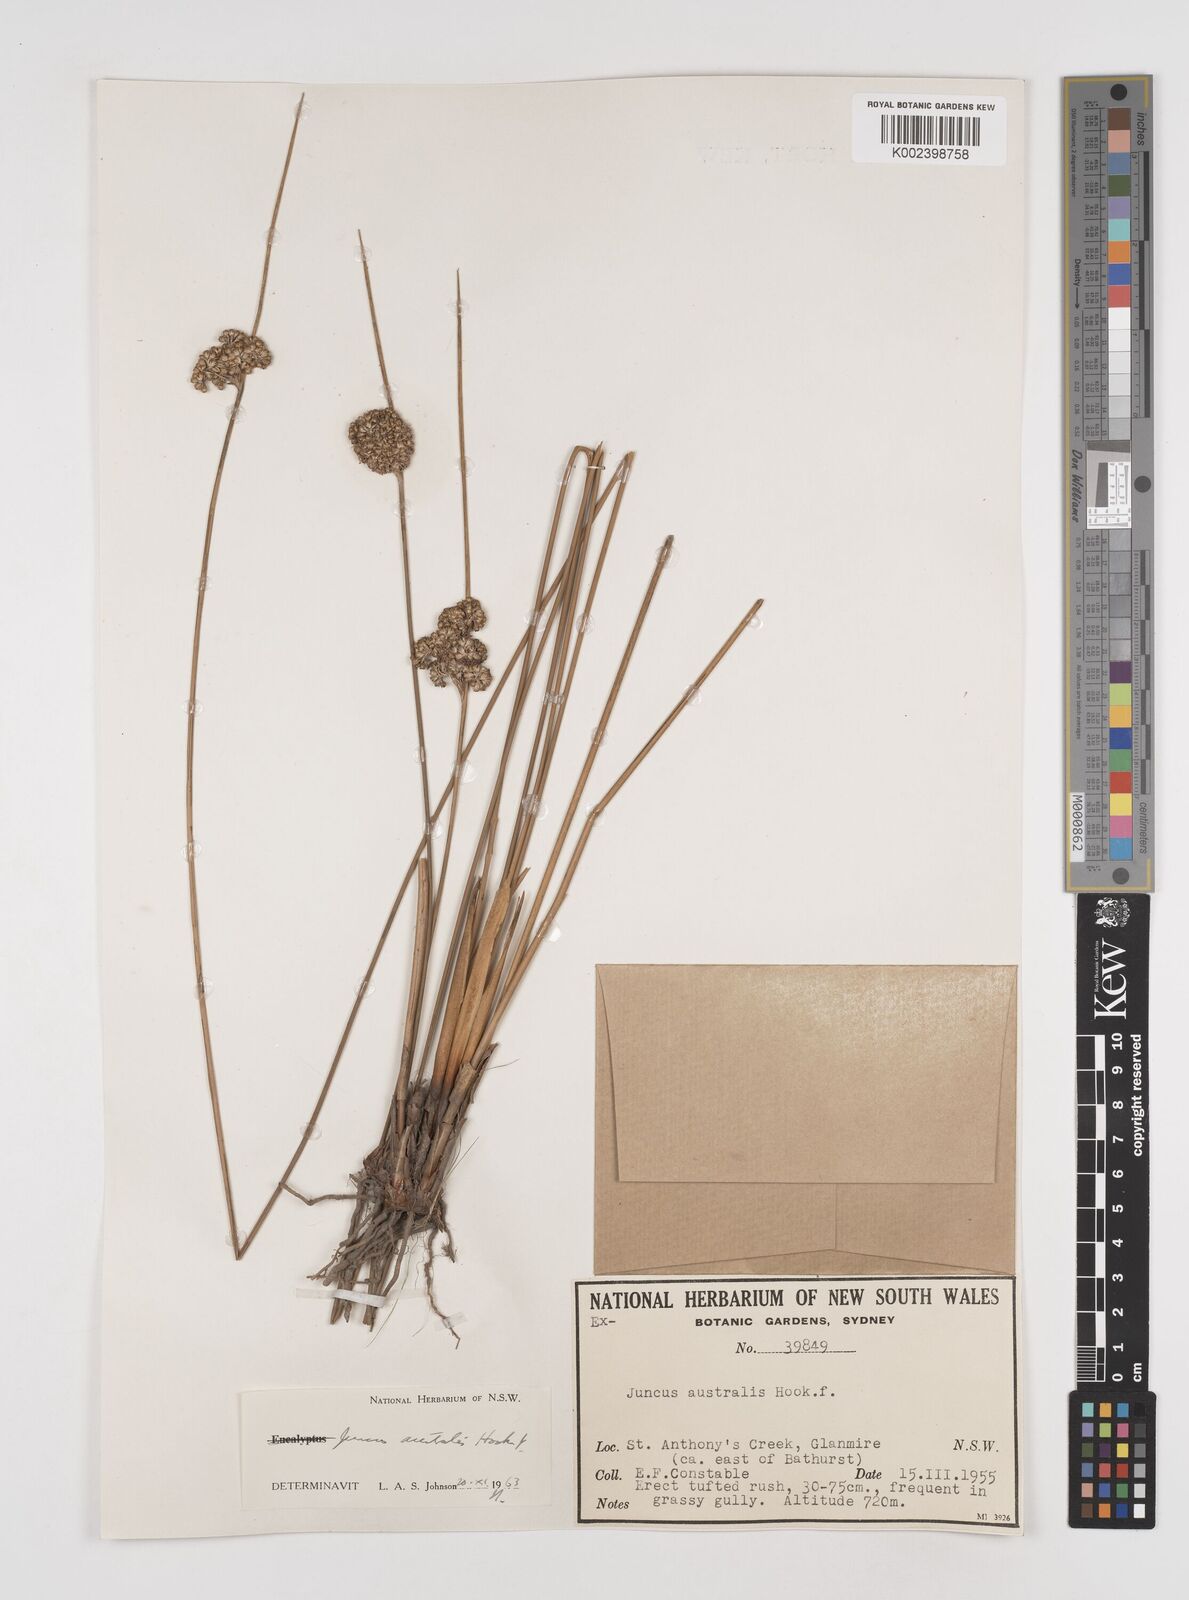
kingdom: Plantae
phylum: Tracheophyta
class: Liliopsida
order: Poales
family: Juncaceae
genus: Juncus
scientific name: Juncus australis
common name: Austral rush
